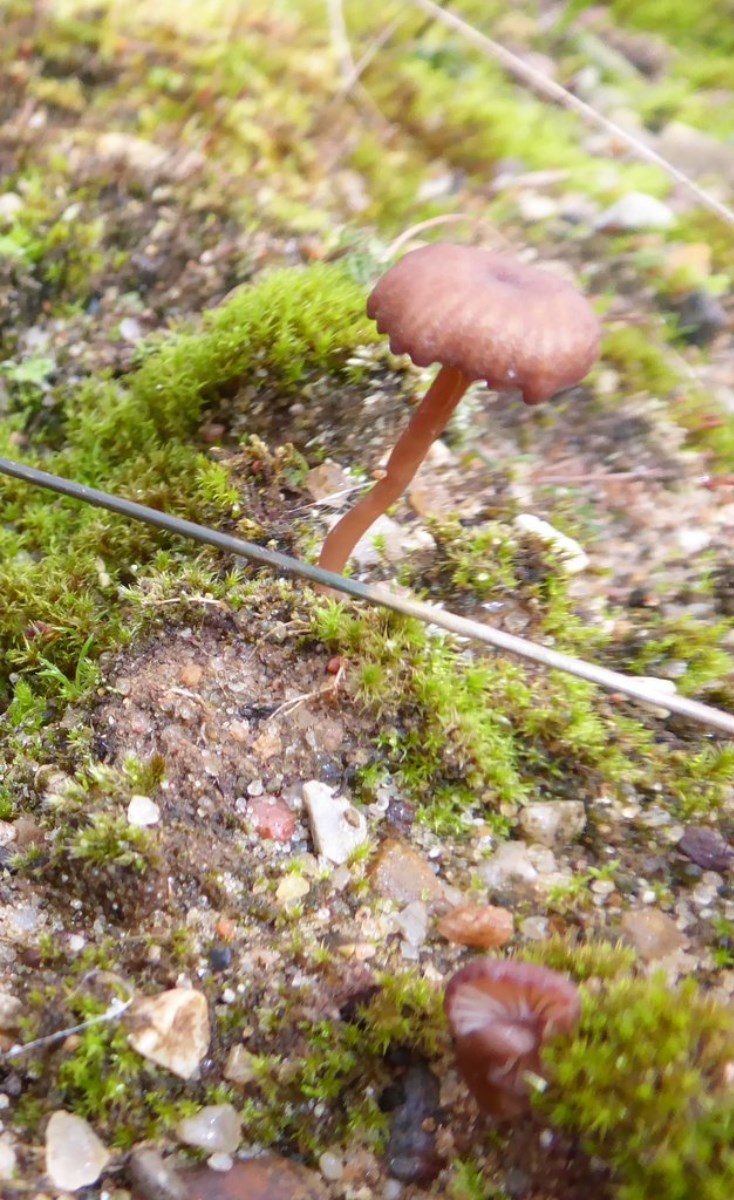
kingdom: Fungi
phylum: Basidiomycota
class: Agaricomycetes
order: Agaricales
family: Tricholomataceae
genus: Omphalina
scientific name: Omphalina pyxidata
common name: rødbrun navlehat
